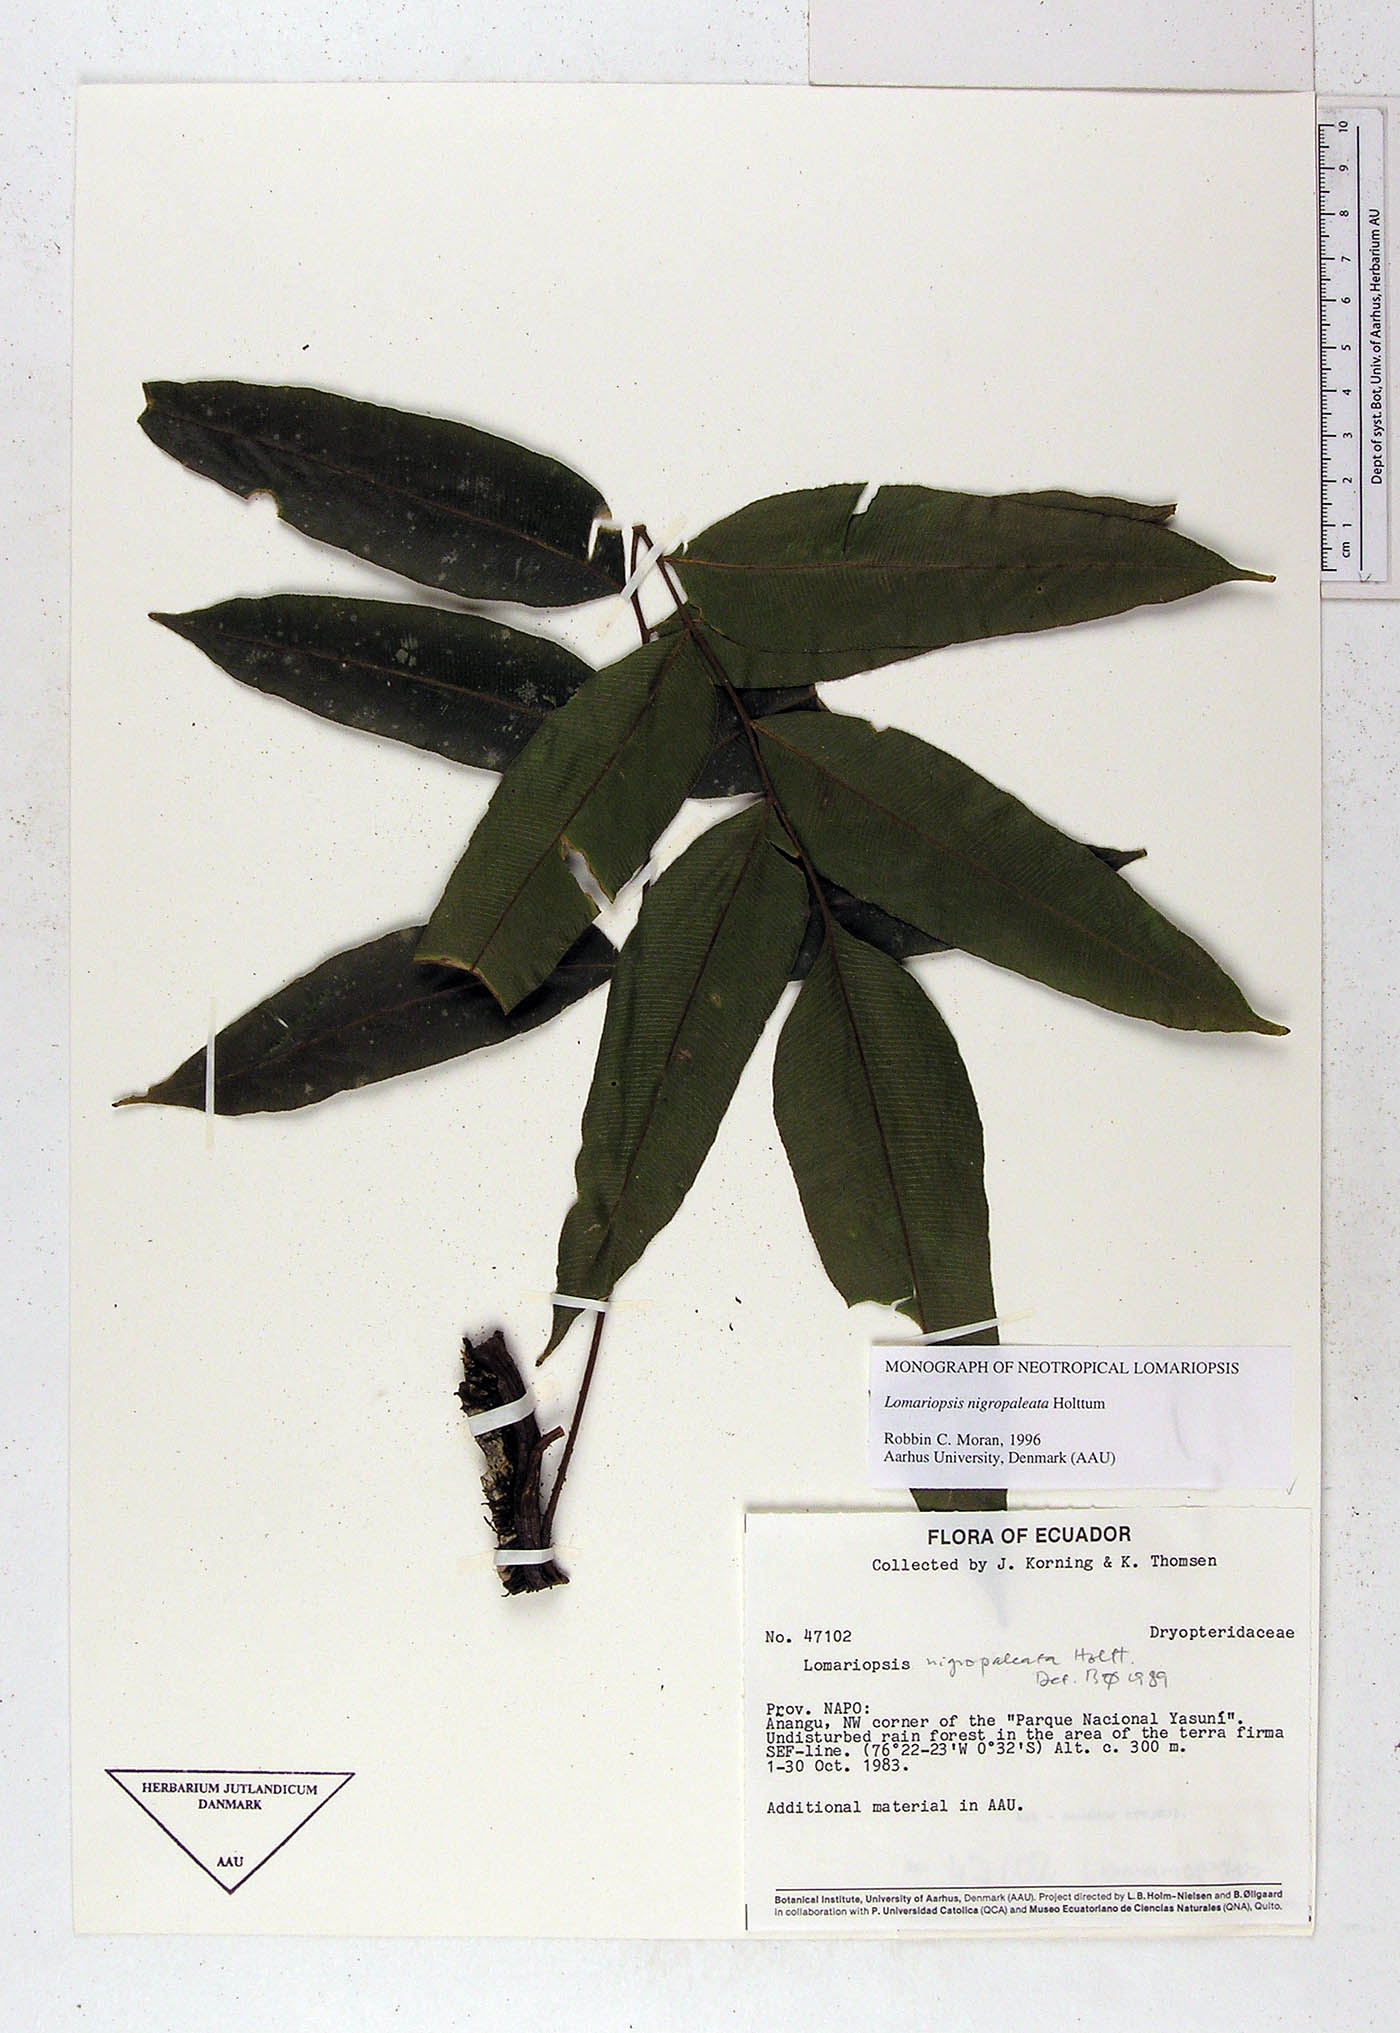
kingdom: Plantae
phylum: Tracheophyta
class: Polypodiopsida
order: Polypodiales
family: Lomariopsidaceae
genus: Lomariopsis
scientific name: Lomariopsis nigropaleata
